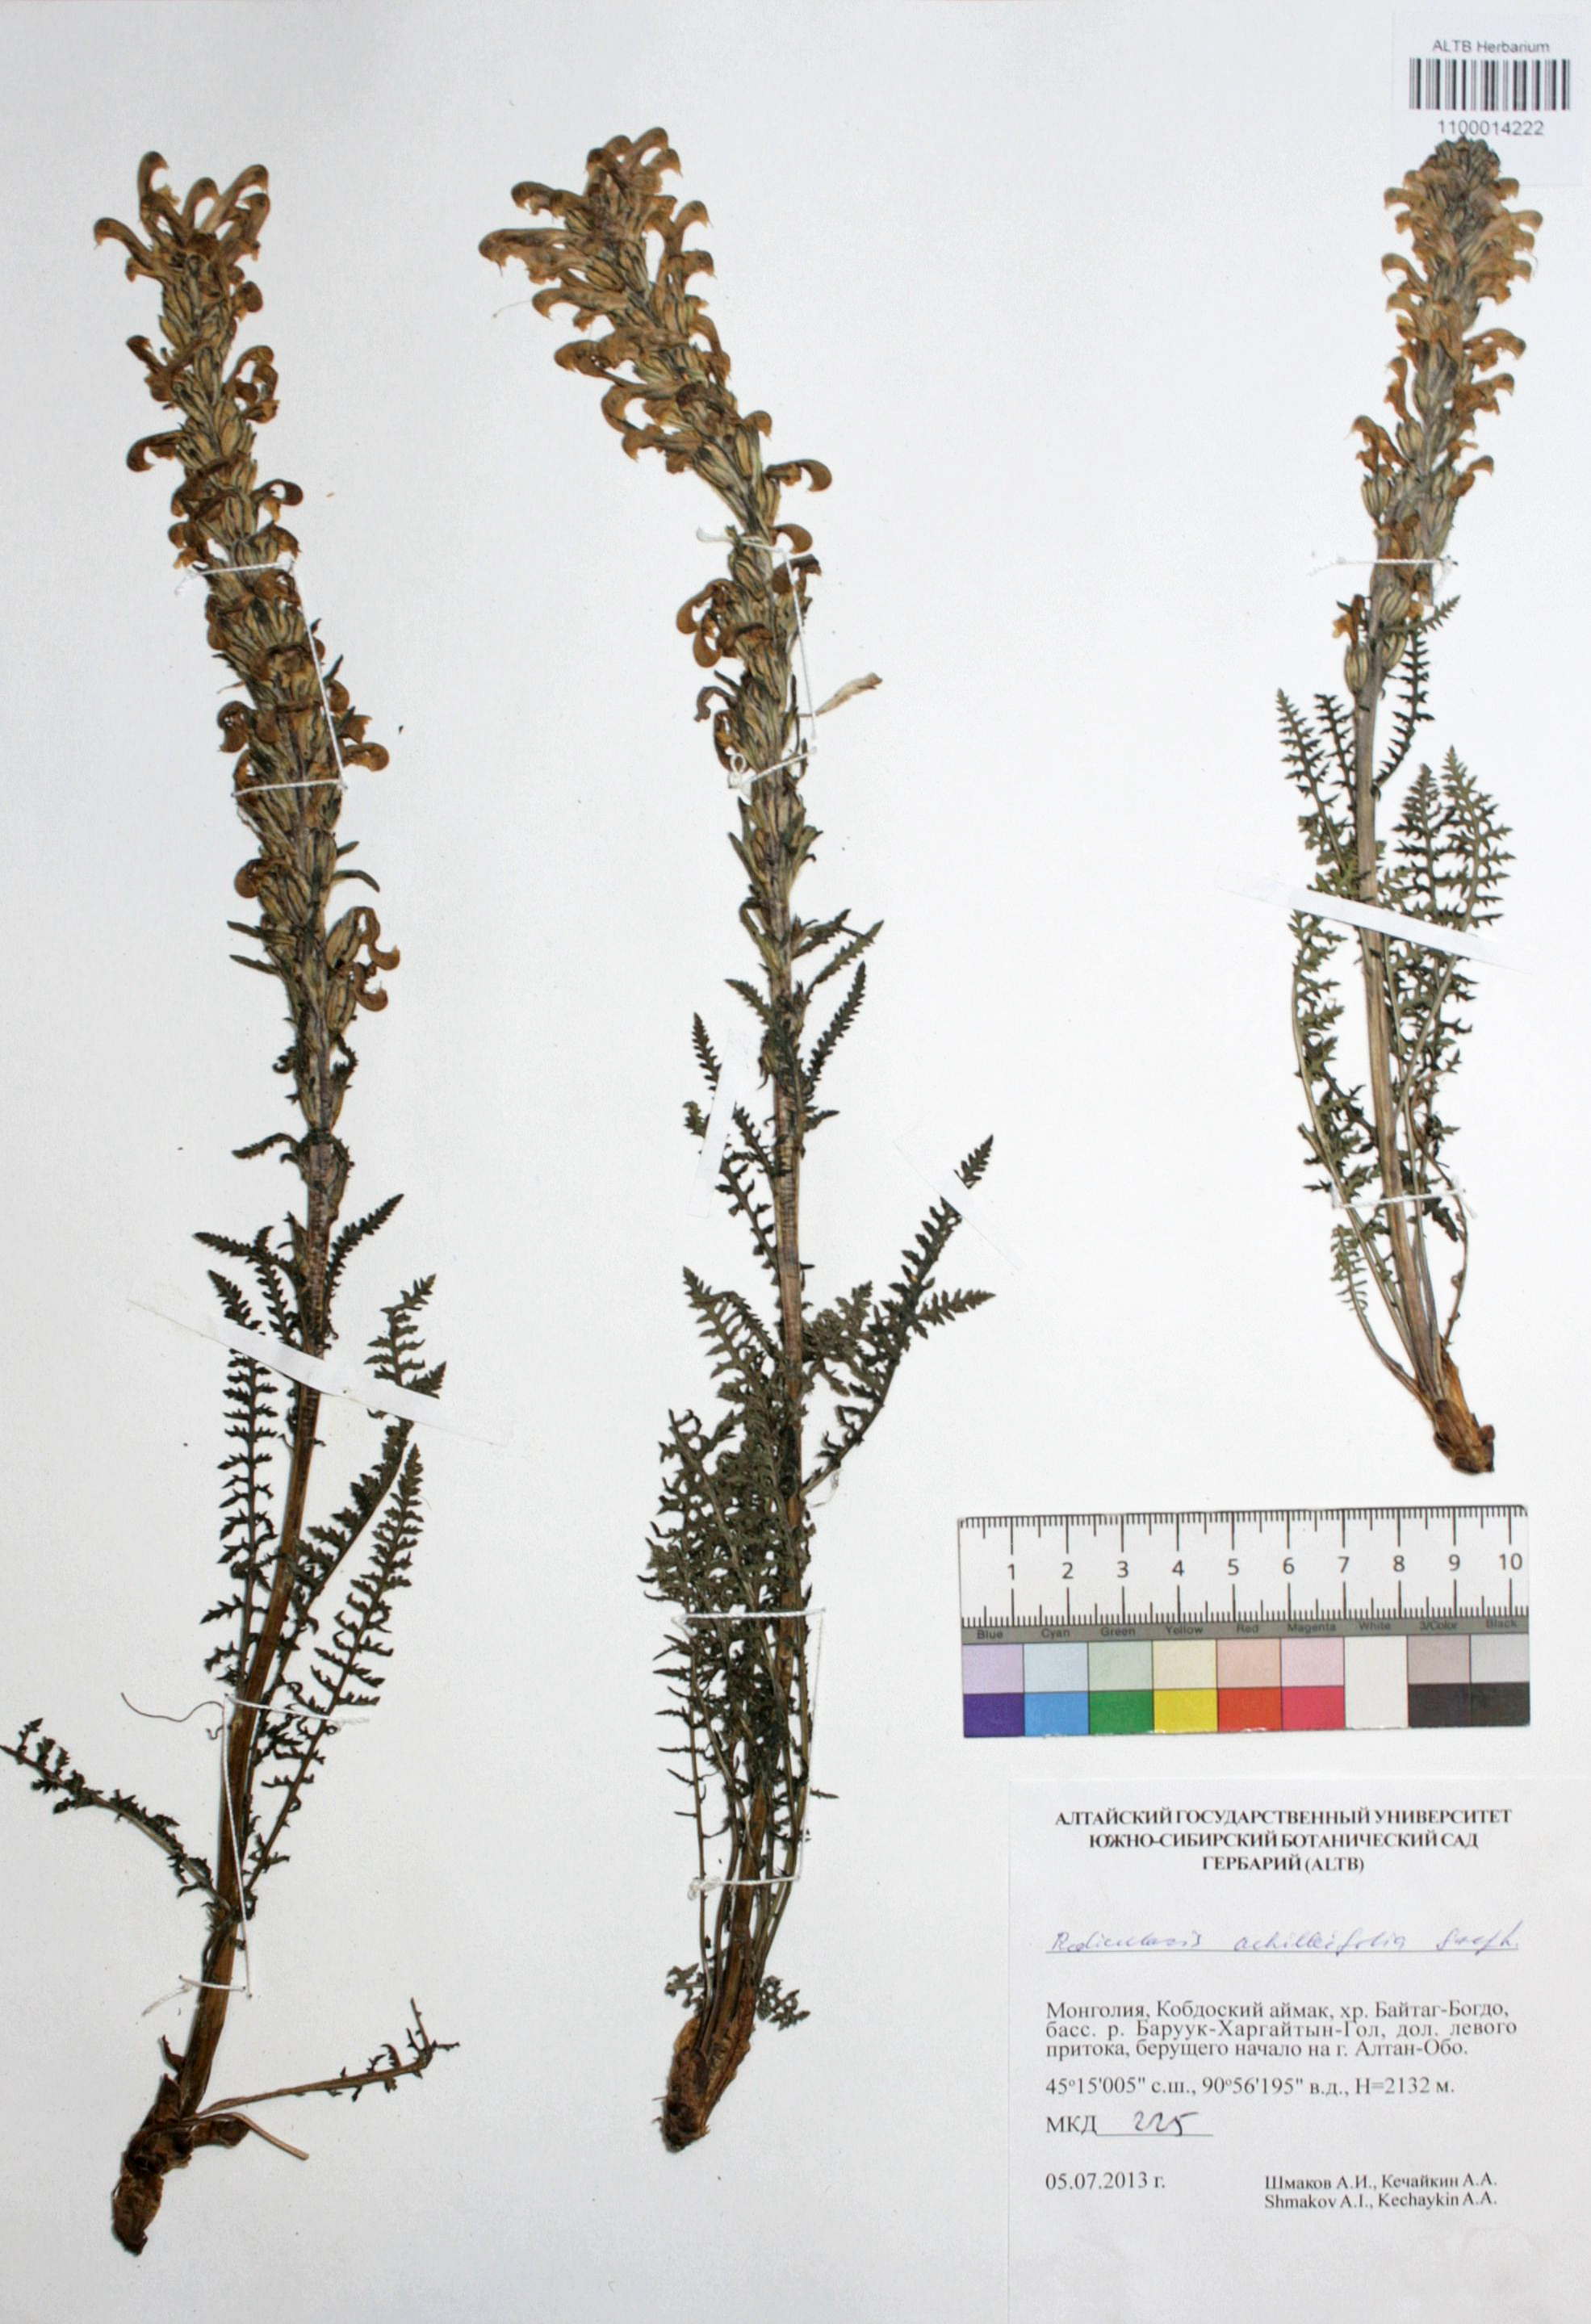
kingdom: Plantae
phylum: Tracheophyta
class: Magnoliopsida
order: Lamiales
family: Orobanchaceae
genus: Pedicularis
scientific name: Pedicularis achilleifolia
